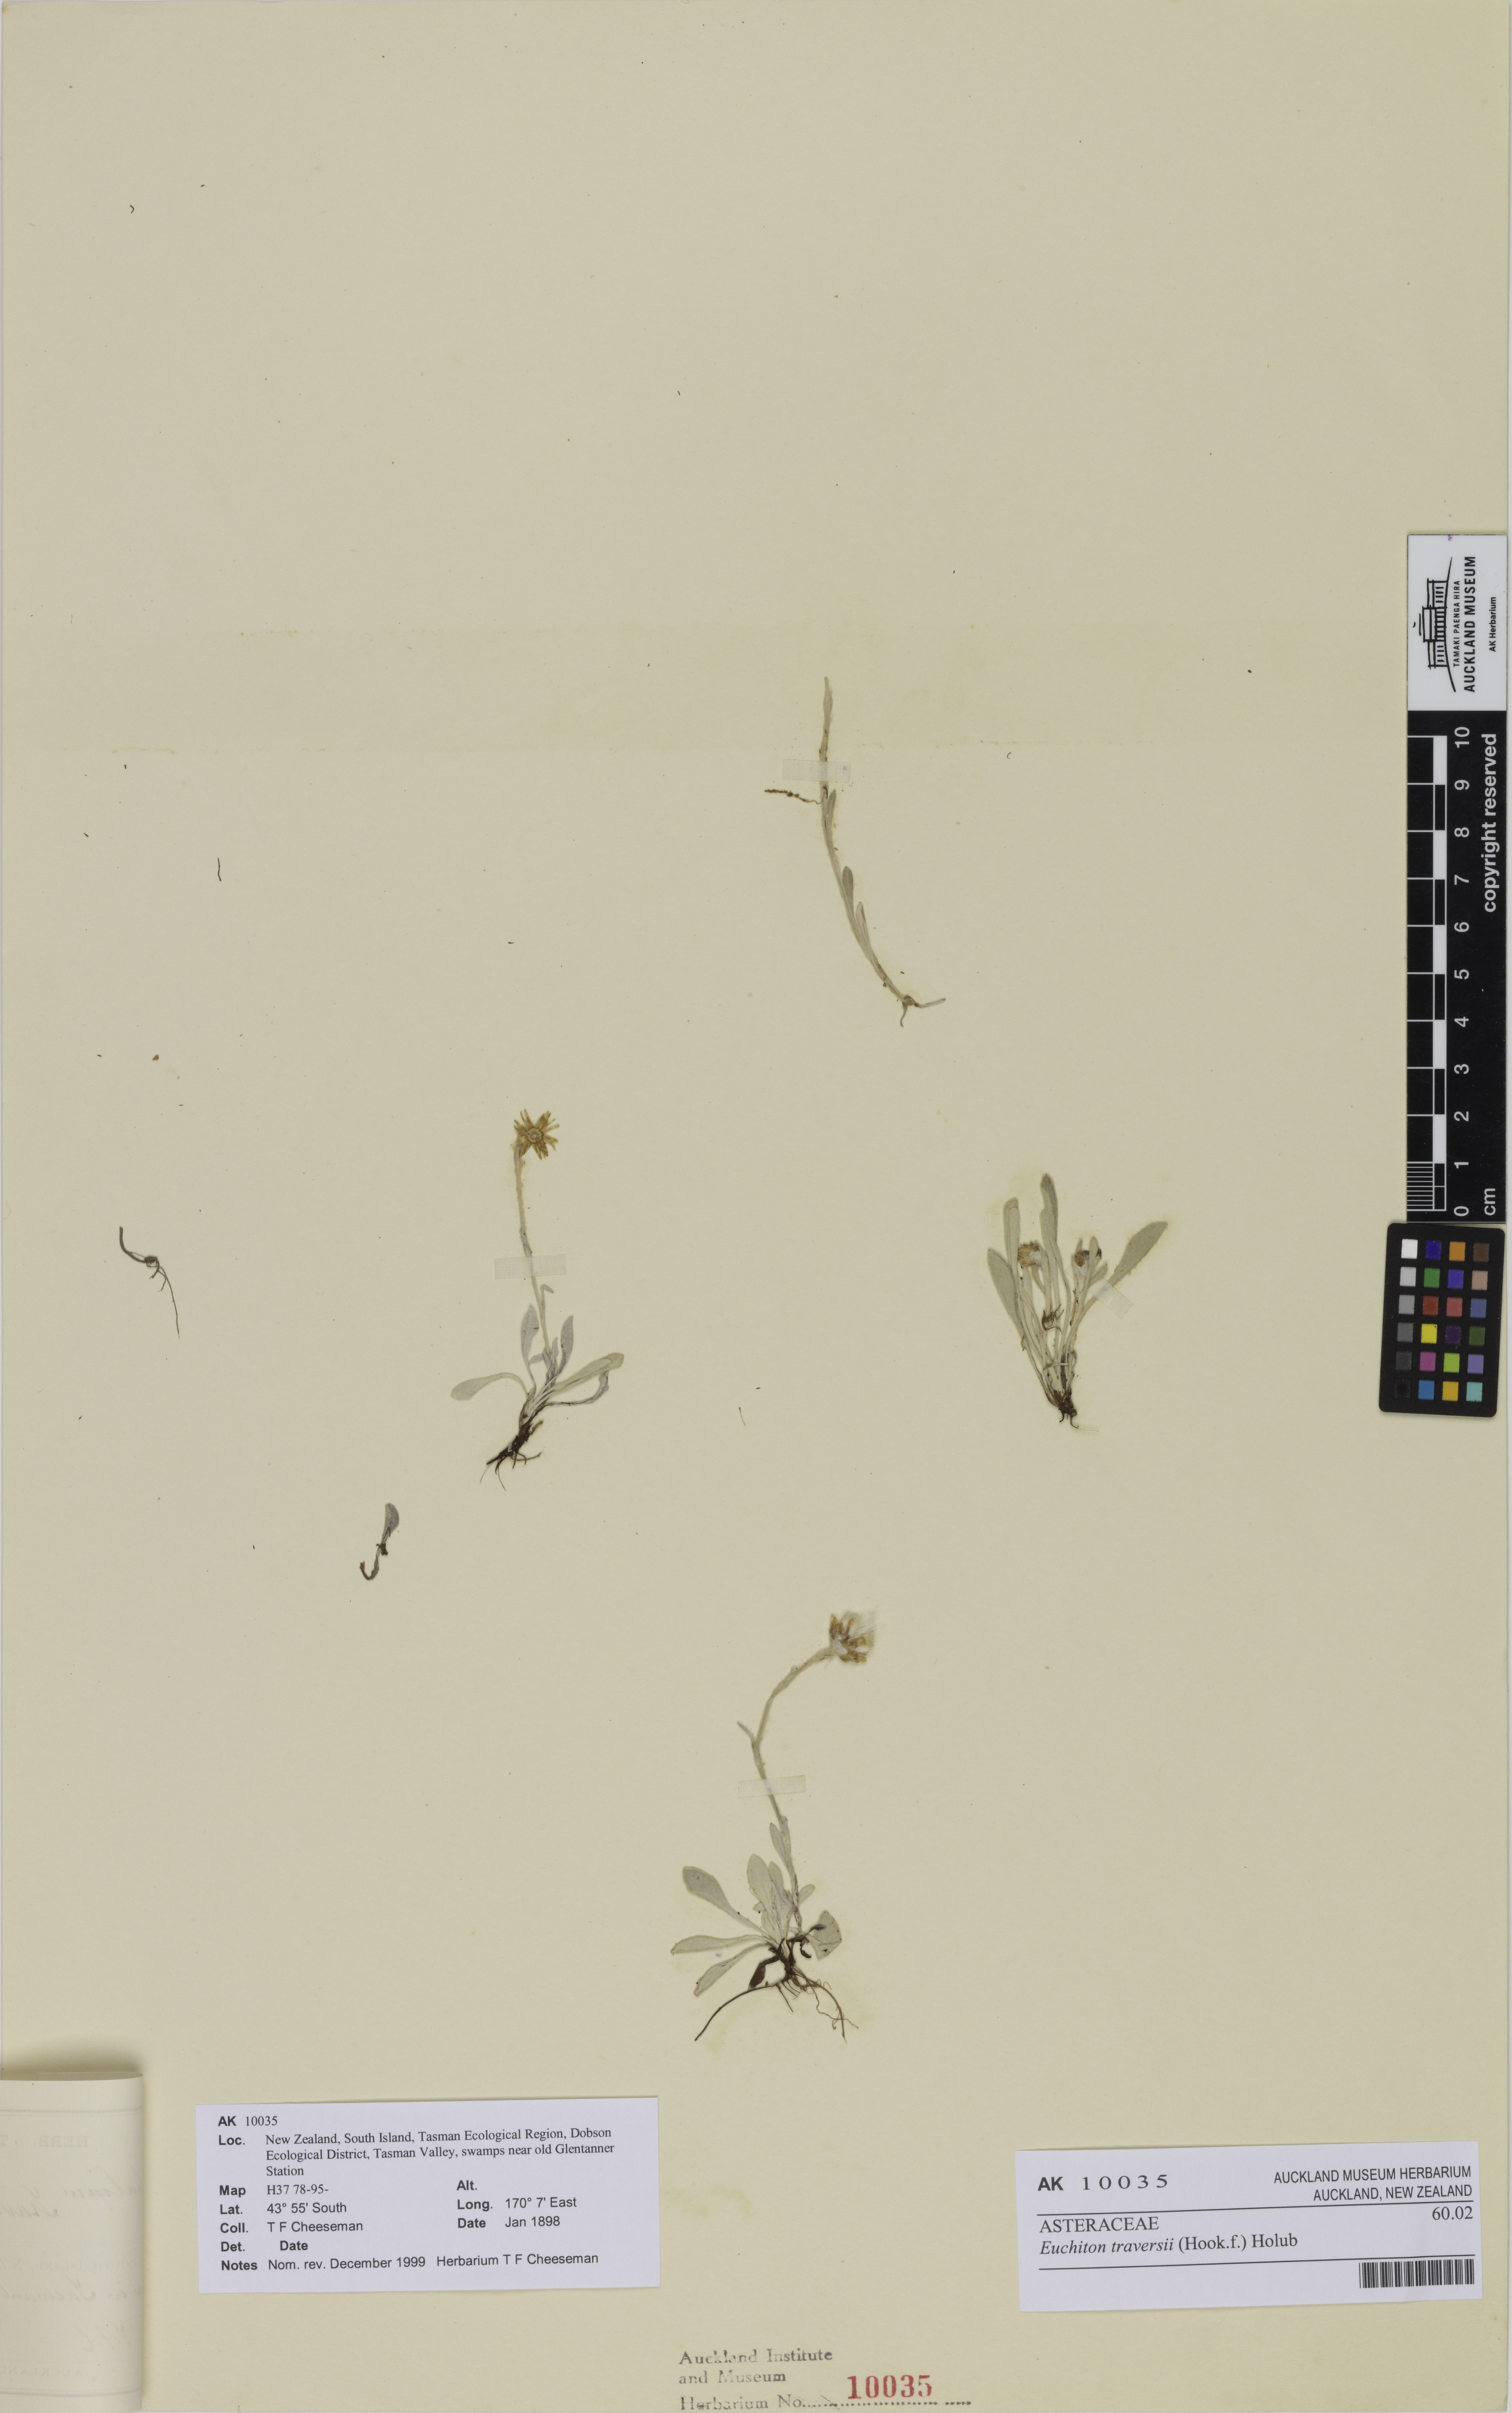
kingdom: Plantae
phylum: Tracheophyta
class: Magnoliopsida
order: Asterales
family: Asteraceae
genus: Euchiton
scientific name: Euchiton traversii
